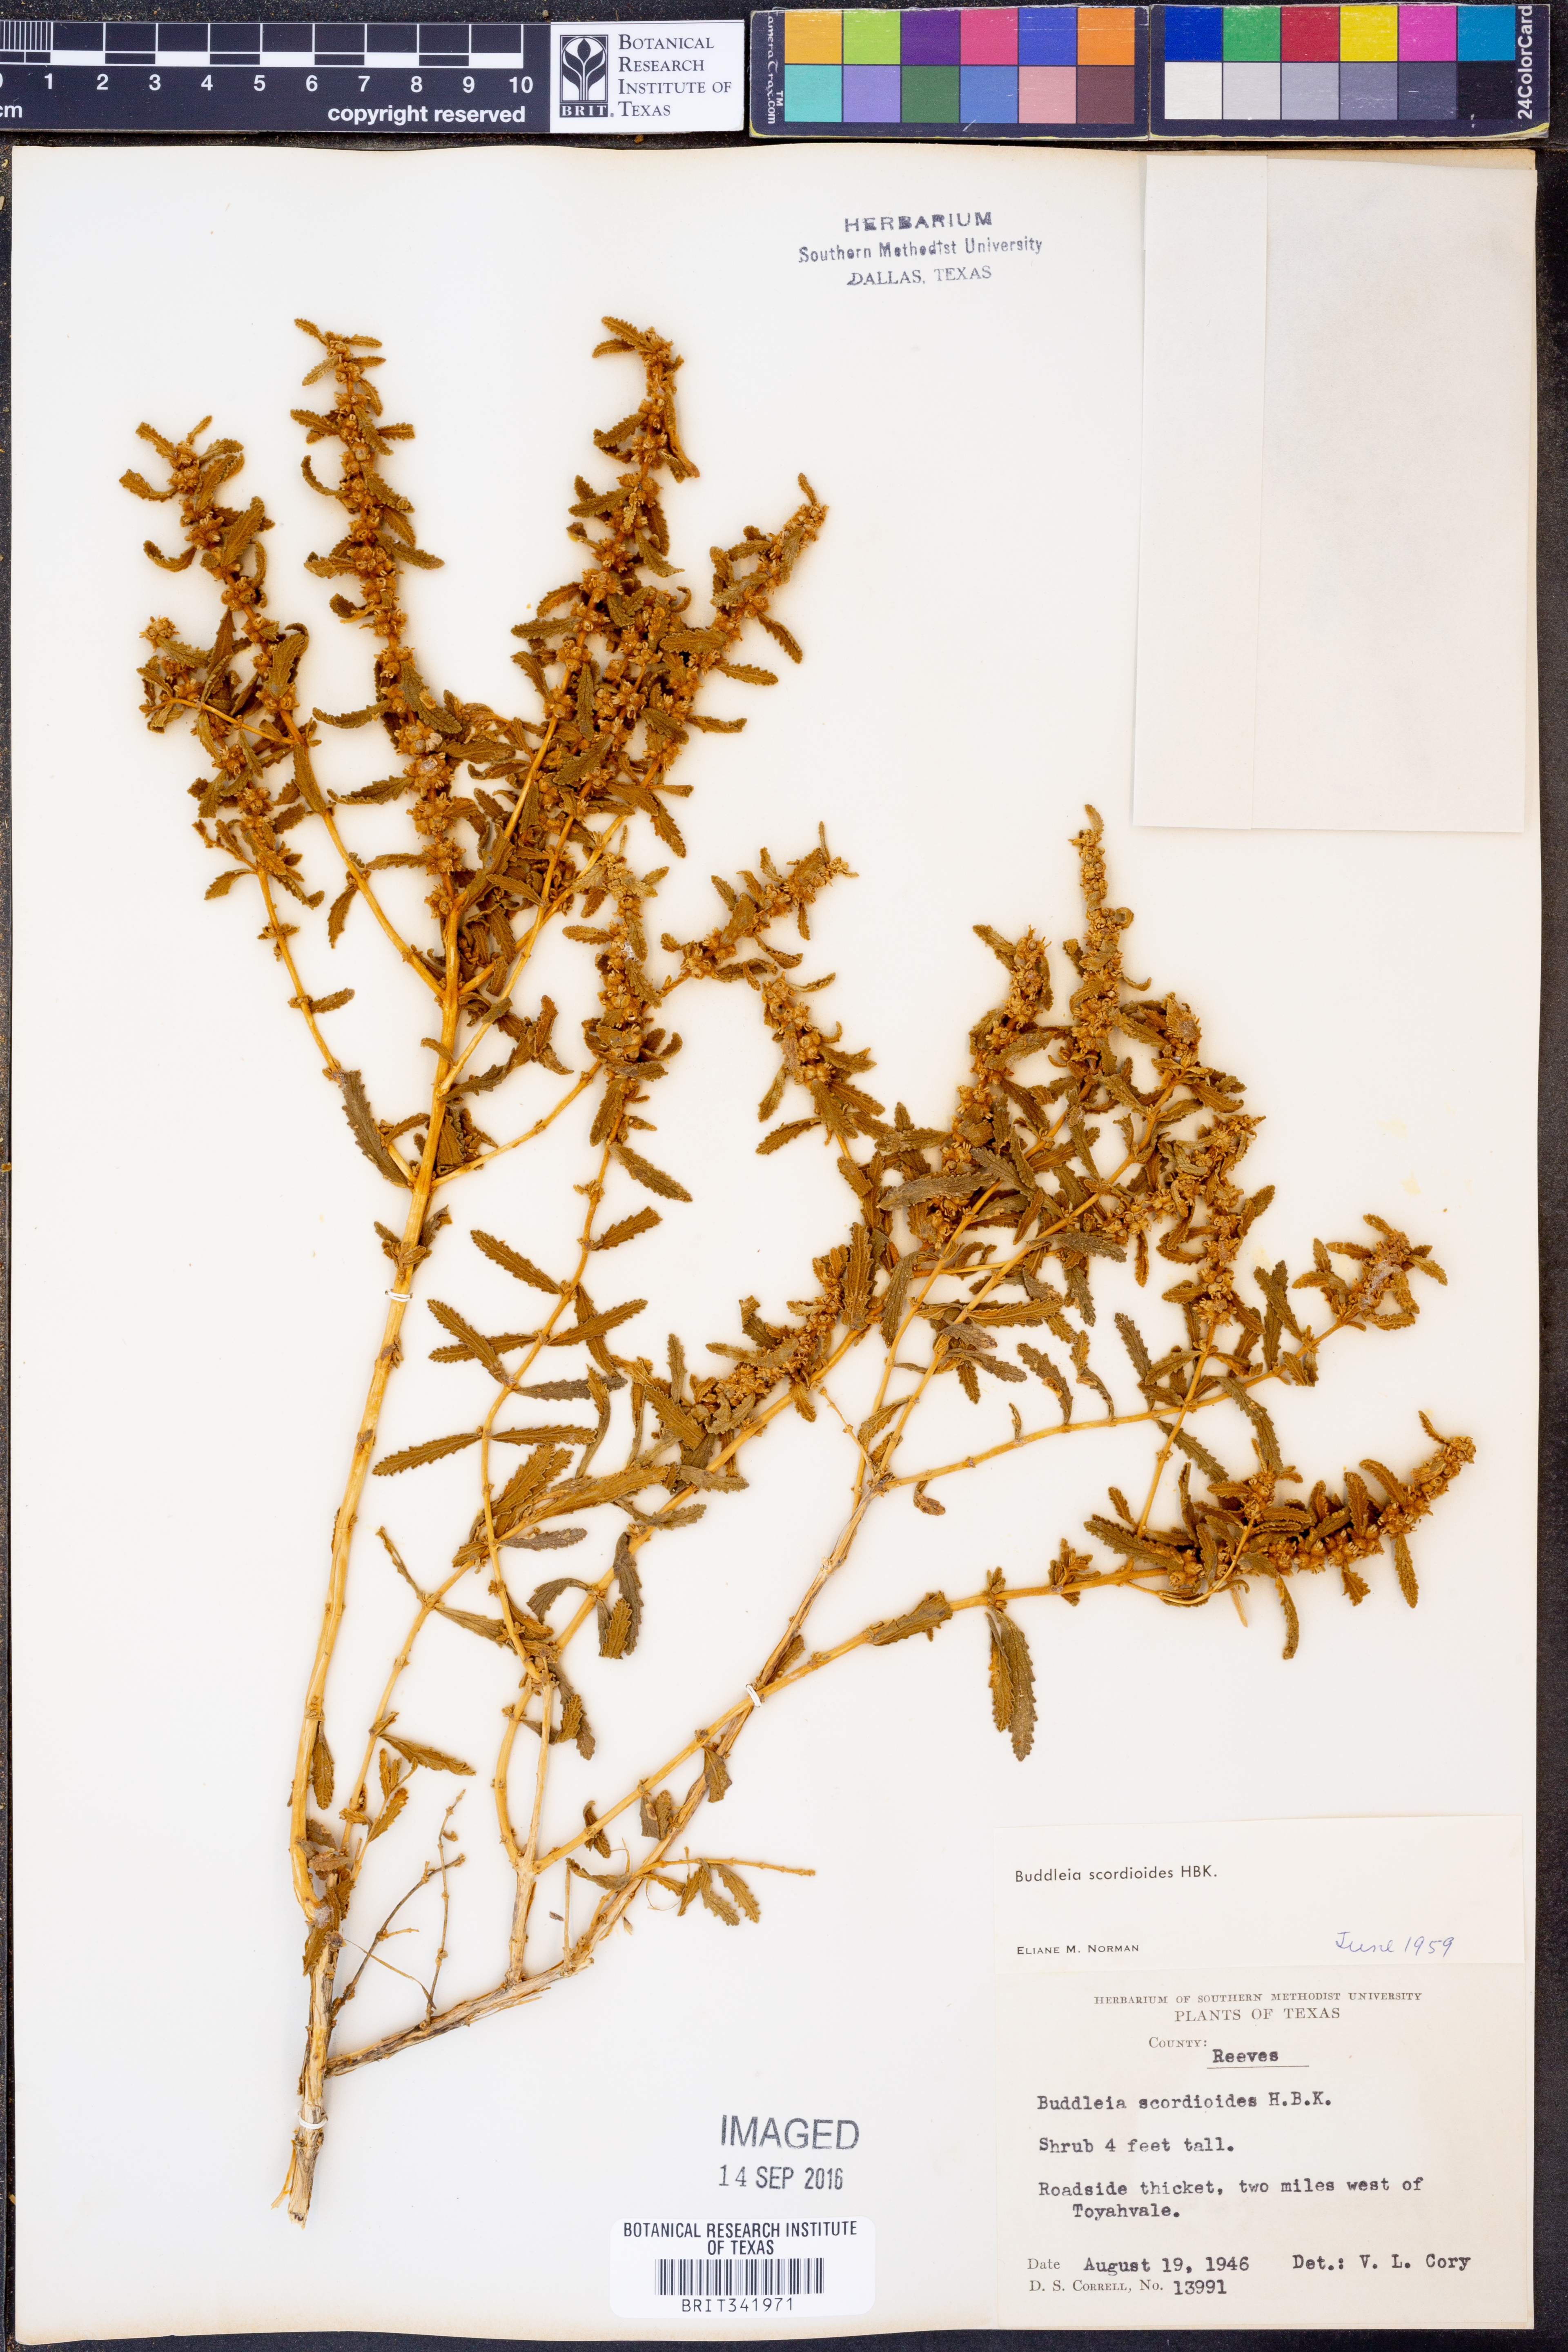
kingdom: Plantae
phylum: Tracheophyta
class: Magnoliopsida
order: Lamiales
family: Scrophulariaceae
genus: Buddleja
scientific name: Buddleja scordioides
